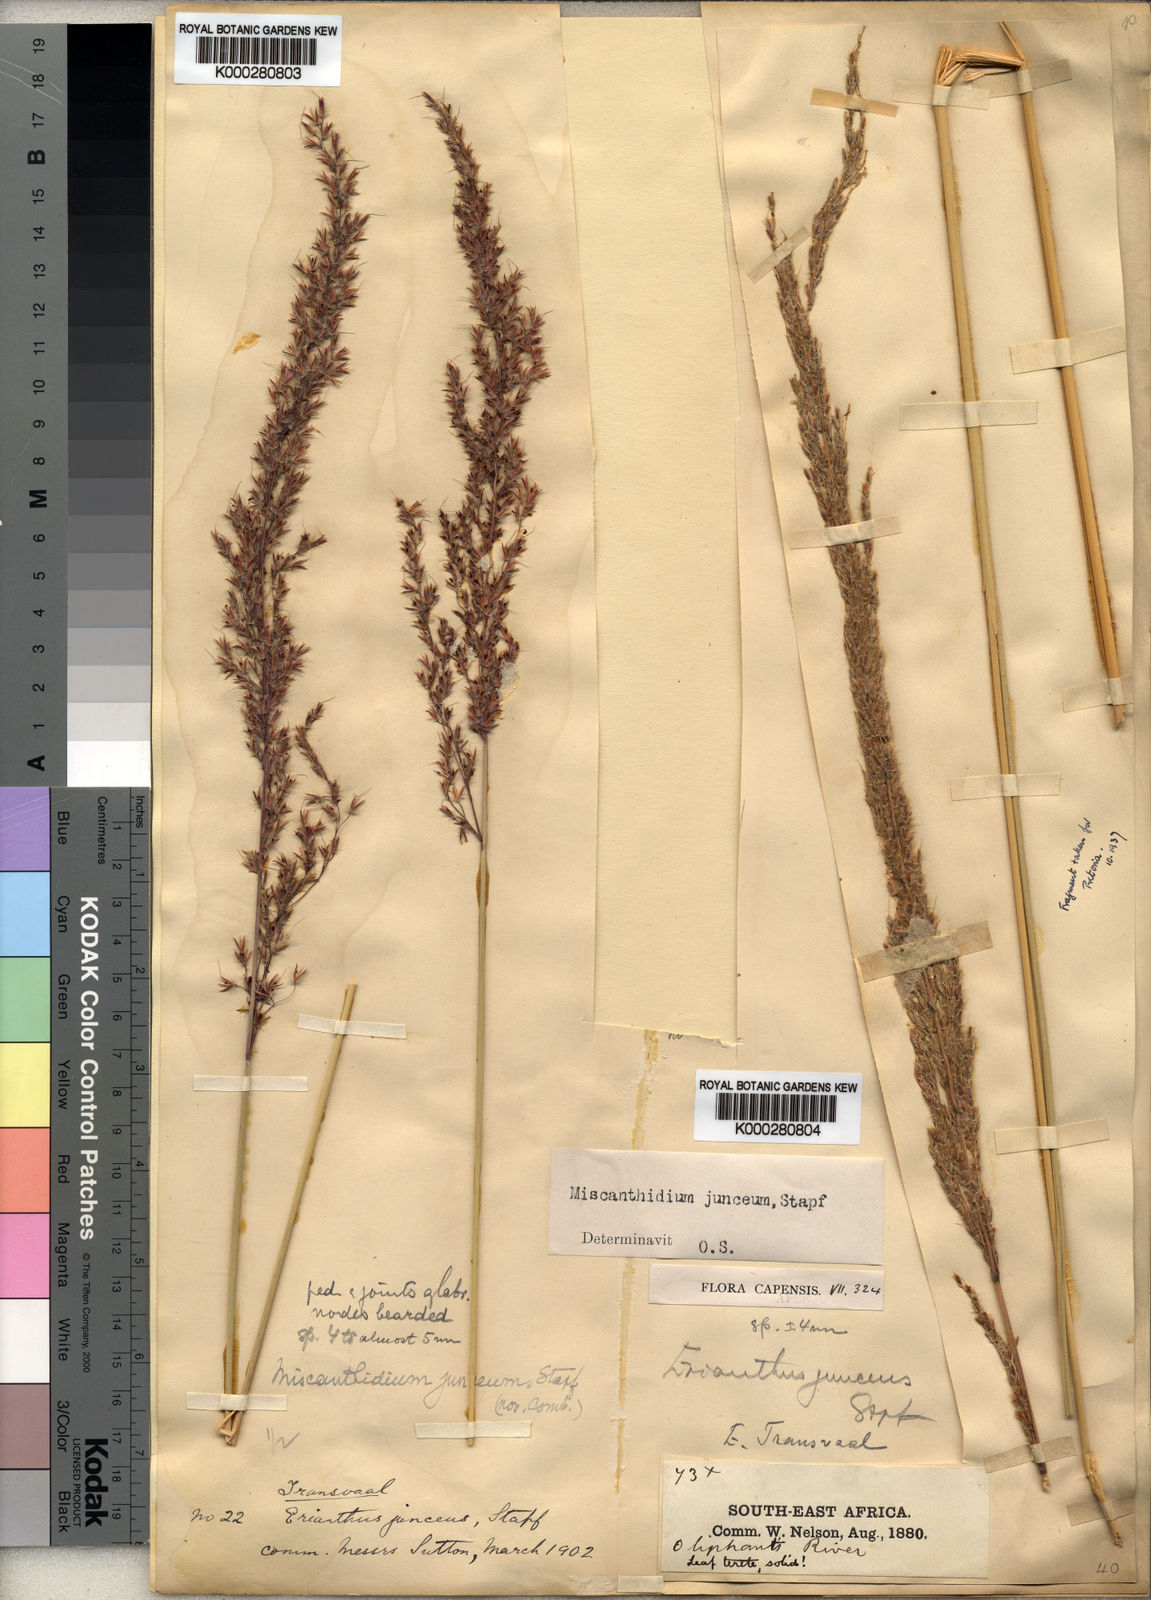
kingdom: Plantae
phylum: Tracheophyta
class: Liliopsida
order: Poales
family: Poaceae
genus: Miscanthidium
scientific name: Miscanthidium junceum
